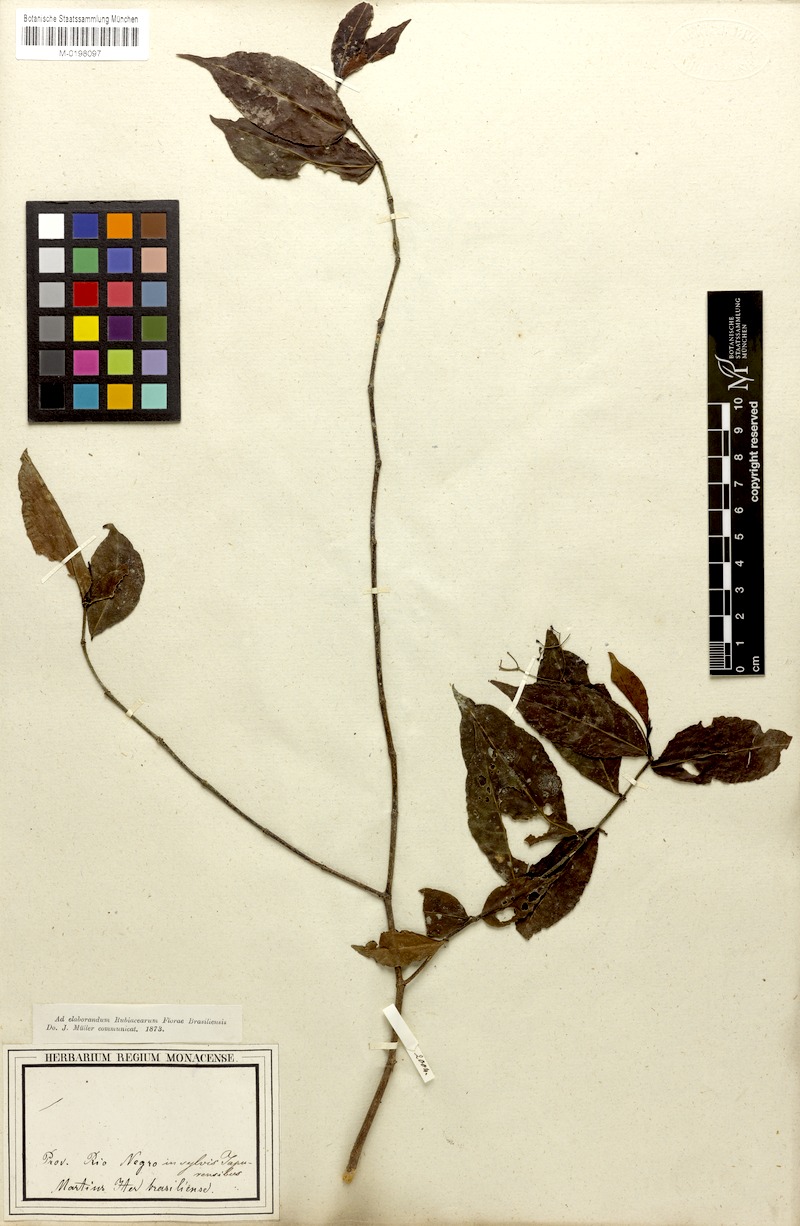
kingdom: Plantae
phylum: Tracheophyta
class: Magnoliopsida
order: Gentianales
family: Rubiaceae
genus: Psychotria
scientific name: Psychotria capillacea
